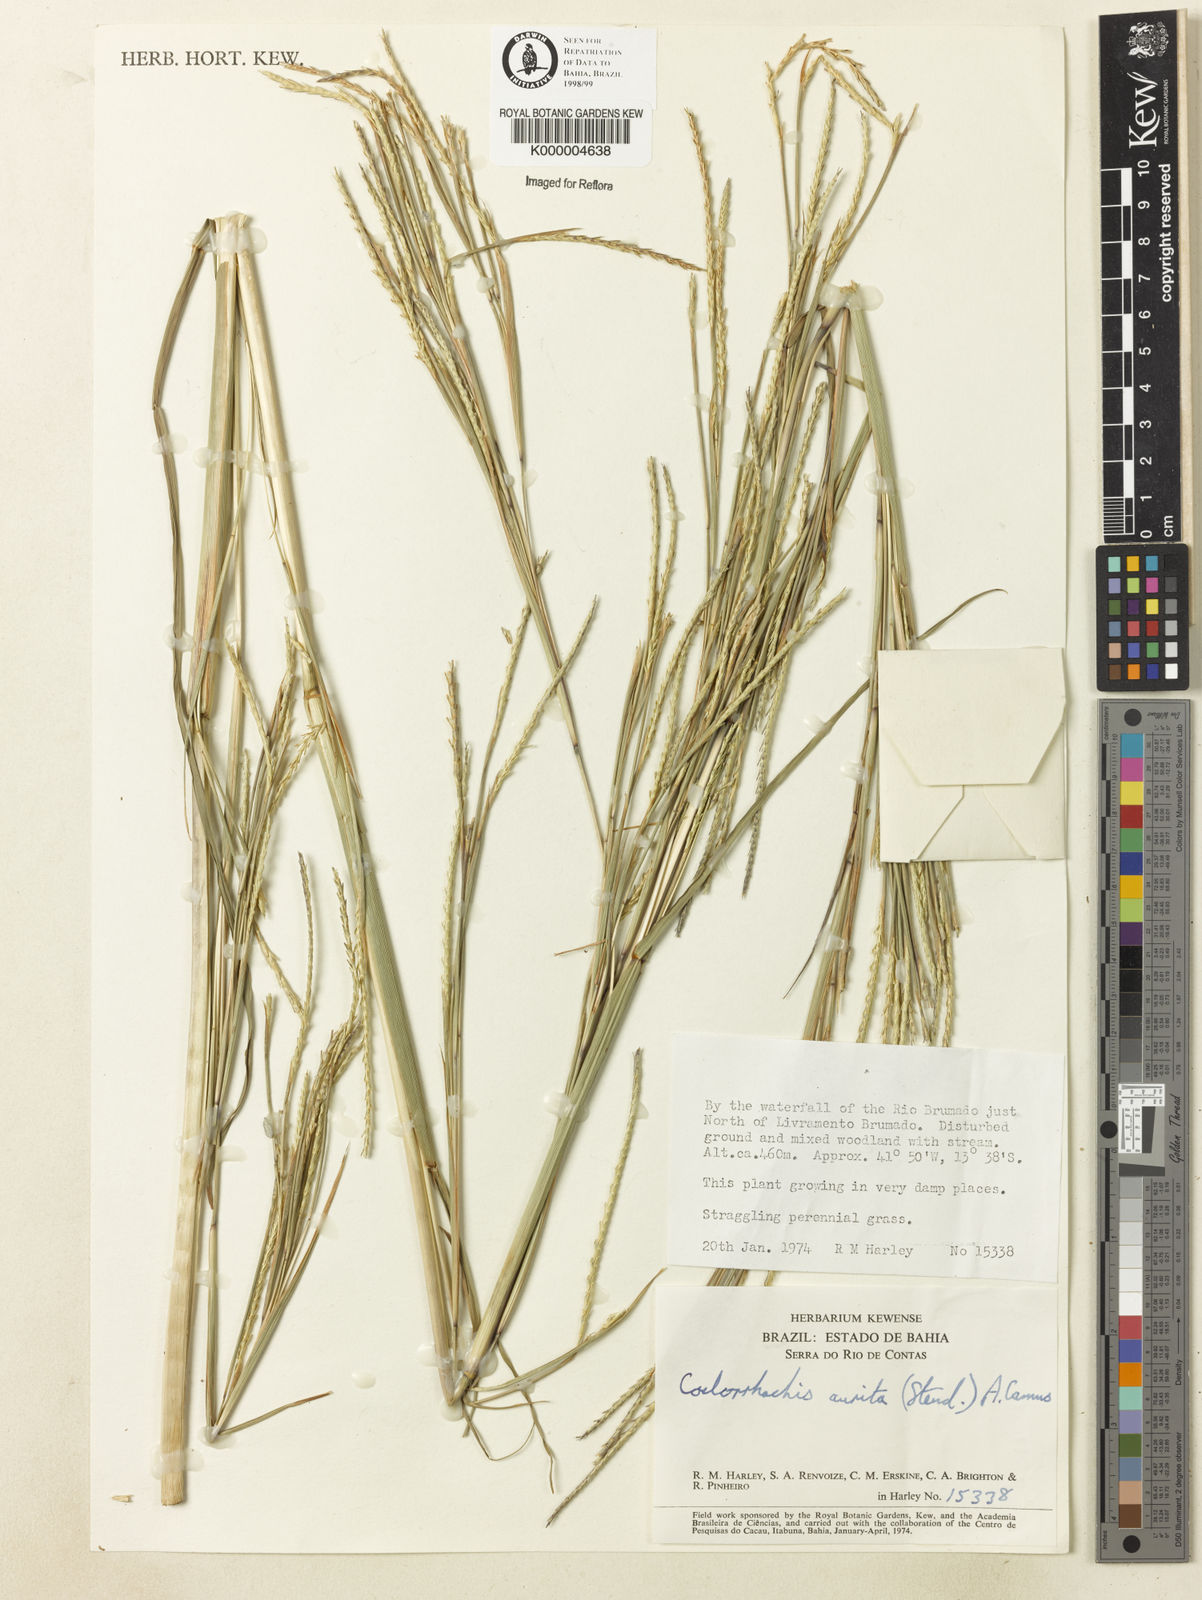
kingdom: Plantae
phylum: Tracheophyta
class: Liliopsida
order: Poales
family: Poaceae
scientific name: Poaceae
